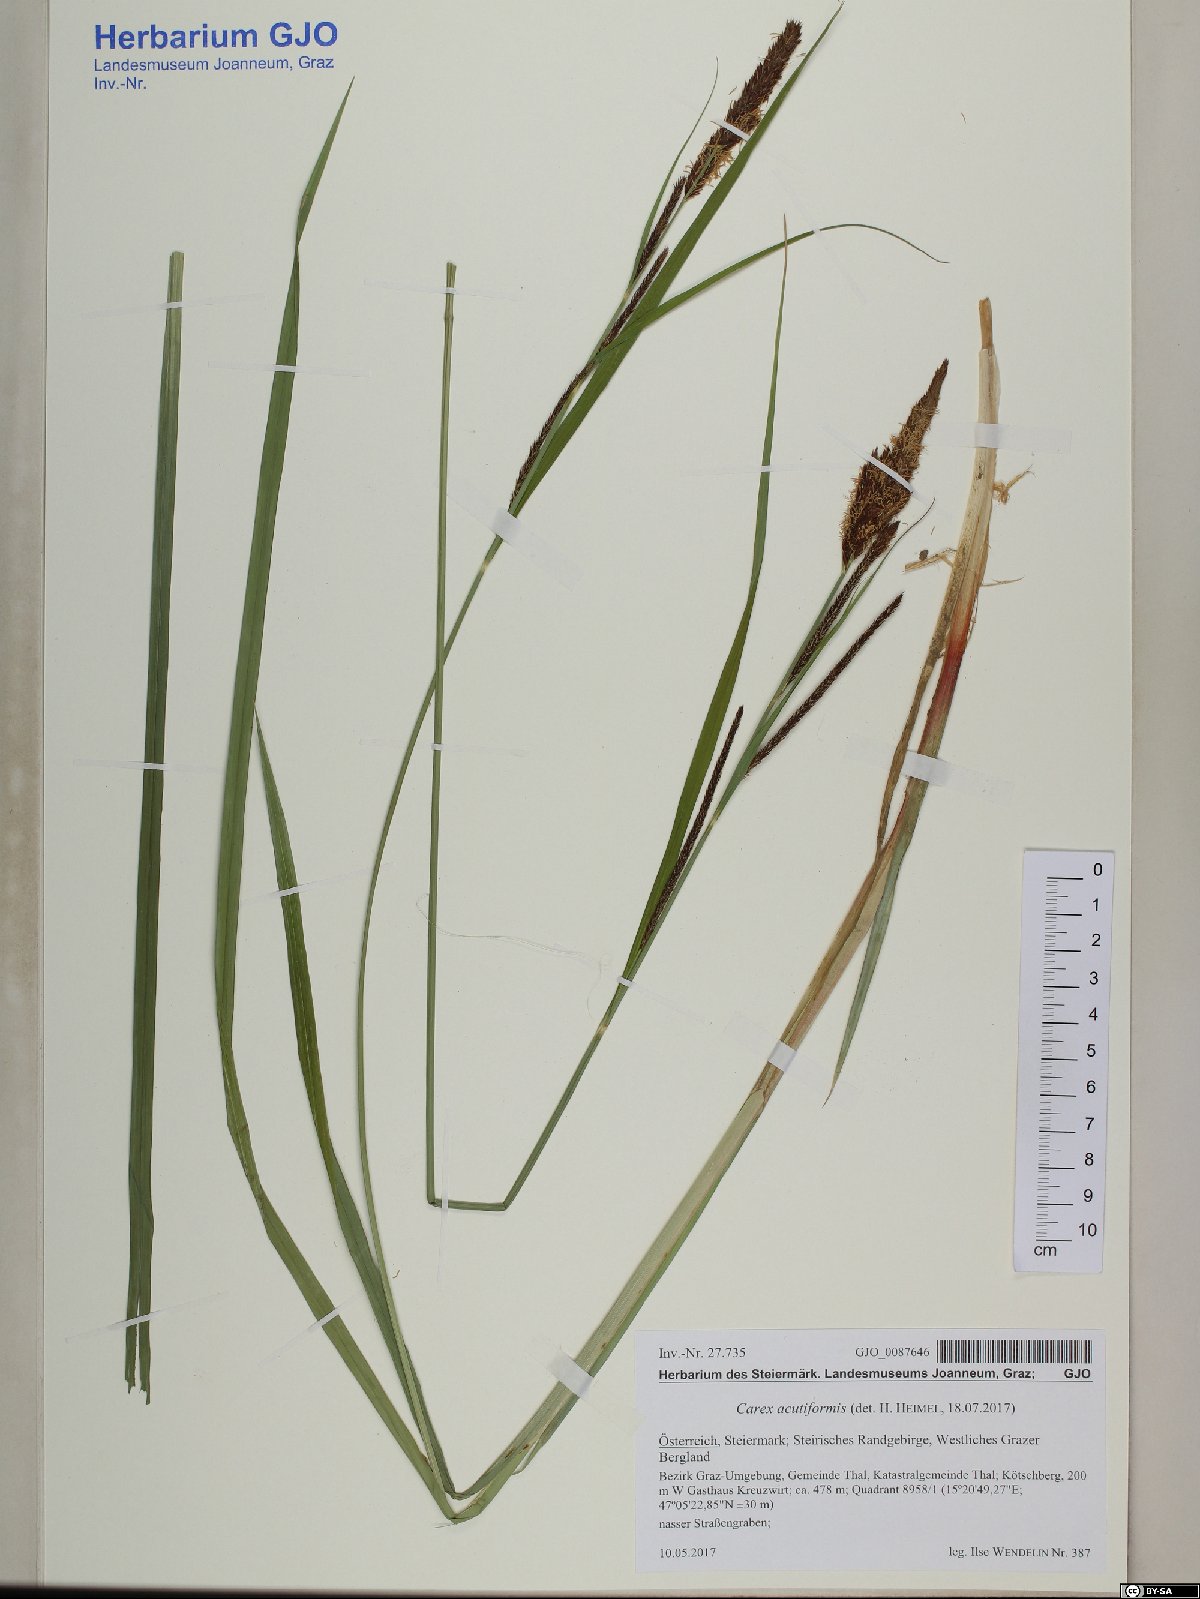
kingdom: Plantae
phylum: Tracheophyta
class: Liliopsida
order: Poales
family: Cyperaceae
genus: Carex
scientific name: Carex acutiformis
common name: Lesser pond-sedge
